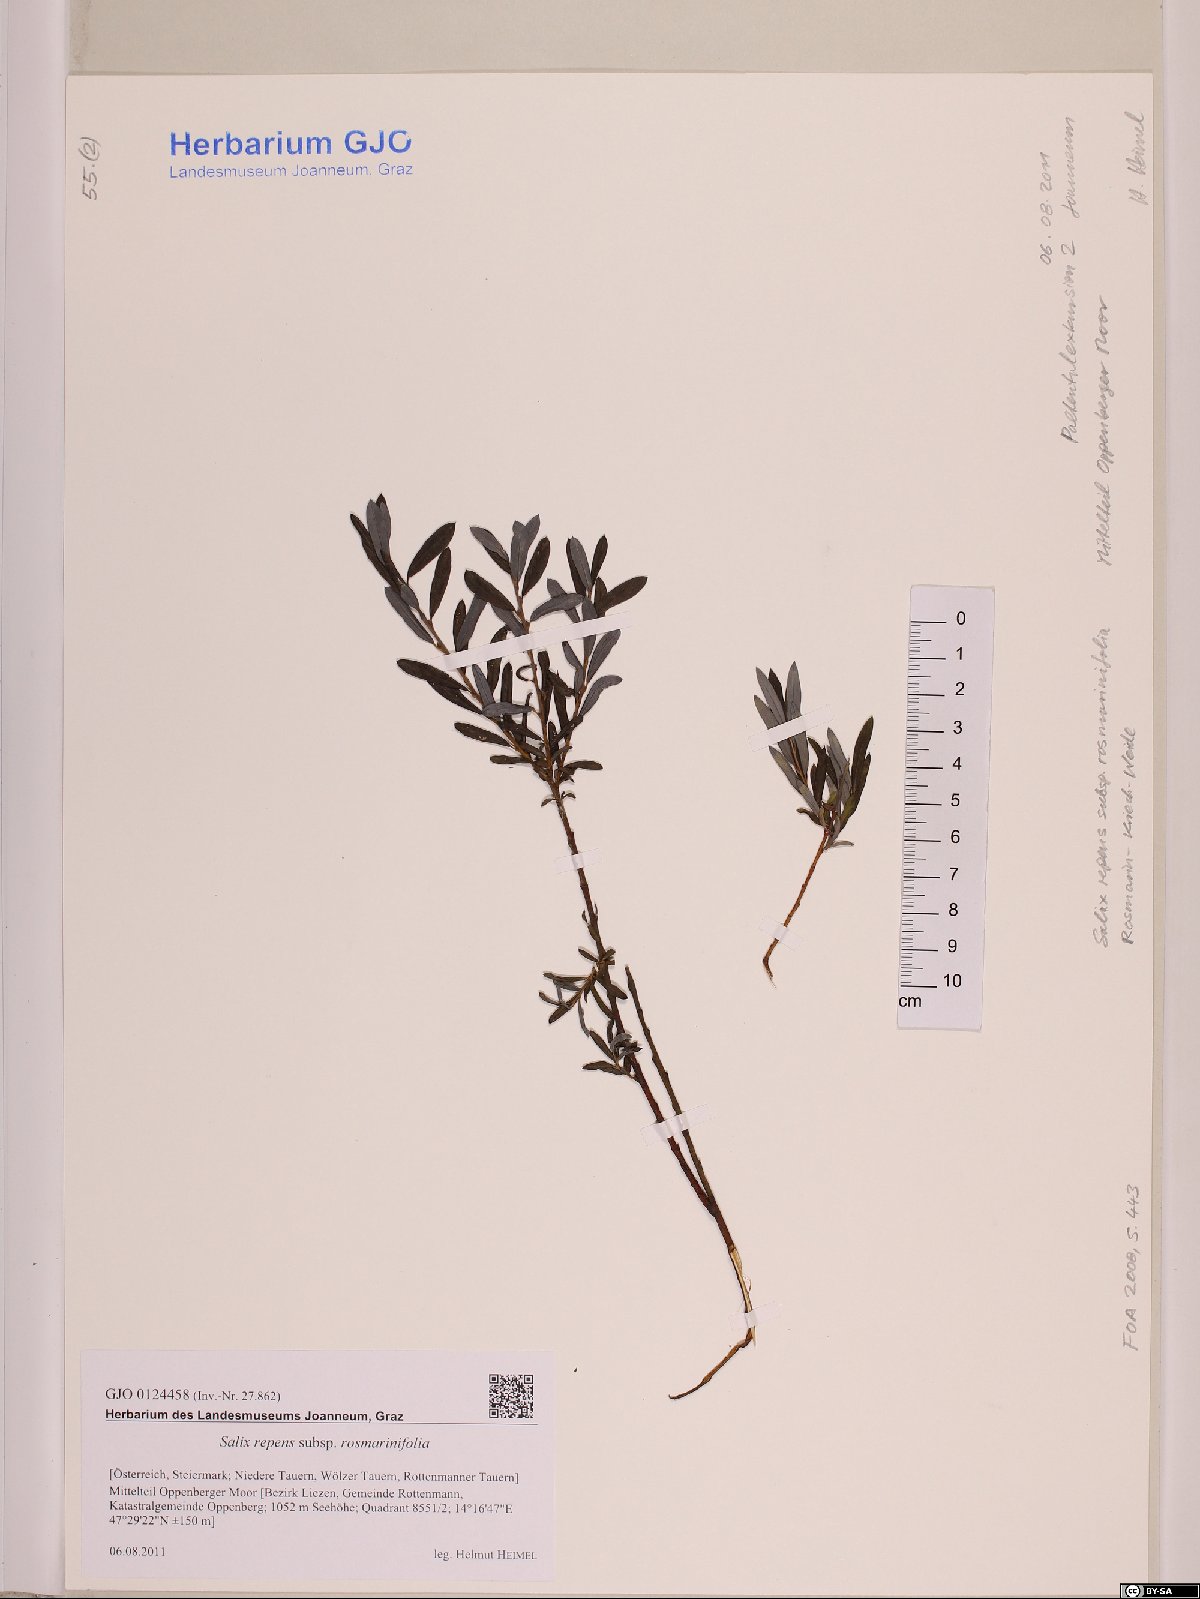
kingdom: Plantae
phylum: Tracheophyta
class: Magnoliopsida
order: Malpighiales
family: Salicaceae
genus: Salix
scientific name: Salix repens
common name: Creeping willow
